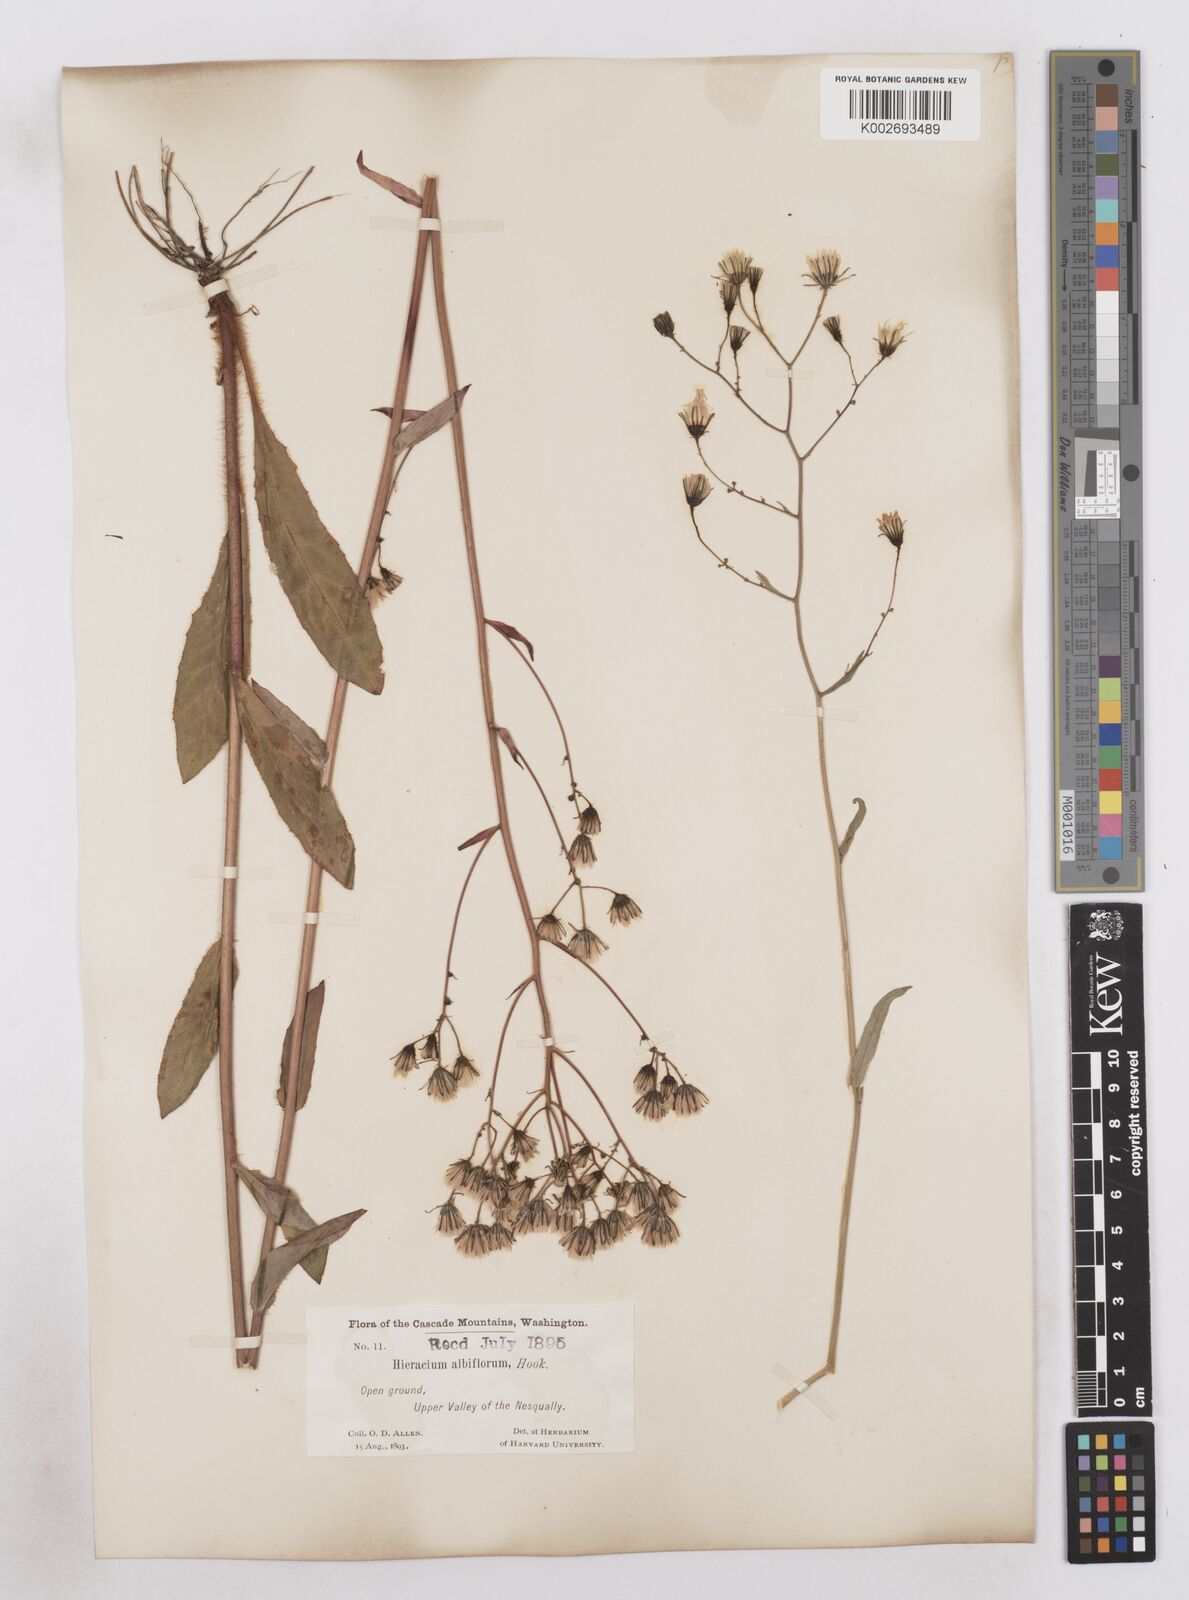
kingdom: Plantae
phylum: Tracheophyta
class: Magnoliopsida
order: Asterales
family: Asteraceae
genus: Hieracium
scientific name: Hieracium albiflorum
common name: White hawkweed
